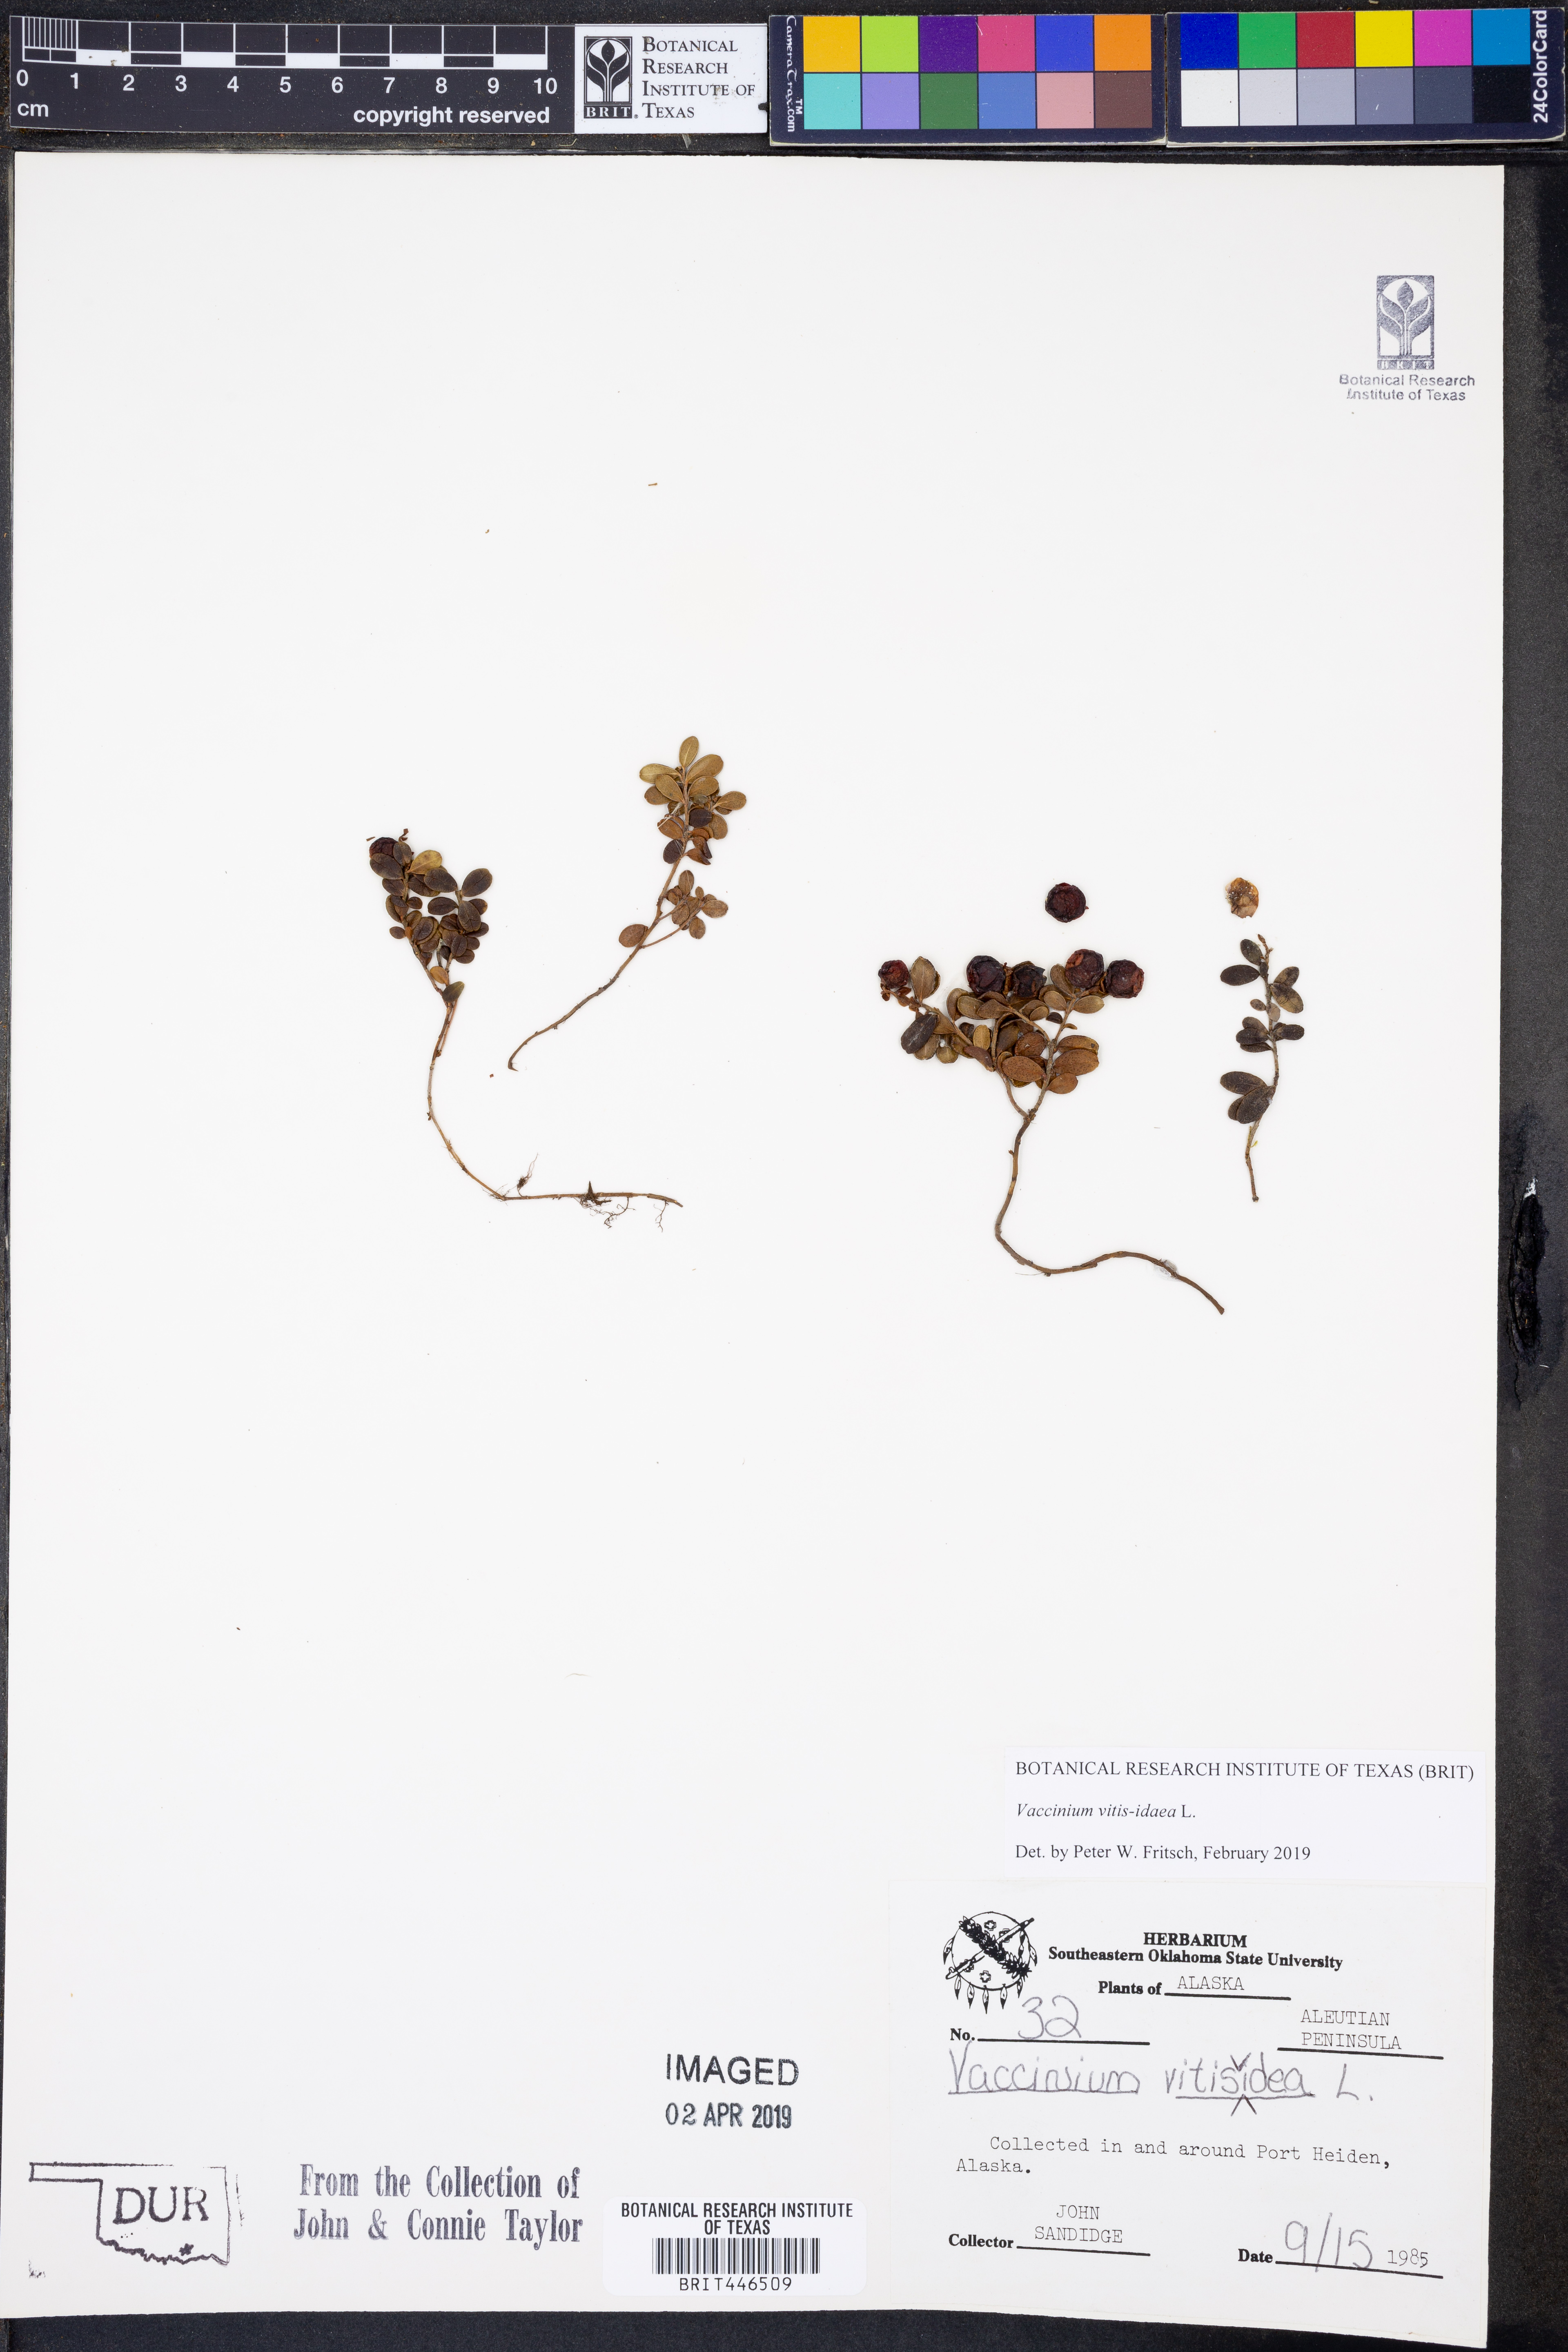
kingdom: Plantae
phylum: Tracheophyta
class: Magnoliopsida
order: Ericales
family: Ericaceae
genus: Vaccinium
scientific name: Vaccinium vitis-idaea
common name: Cowberry
